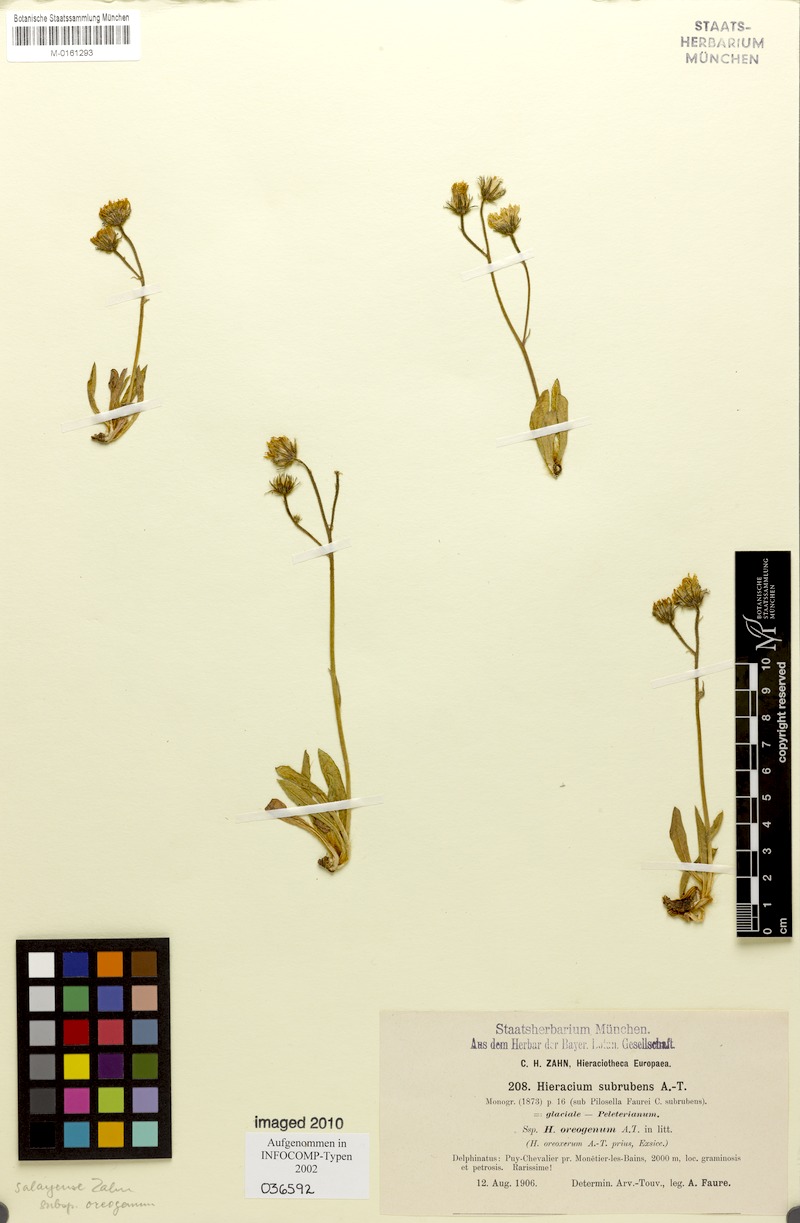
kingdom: Plantae
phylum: Tracheophyta
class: Magnoliopsida
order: Asterales
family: Asteraceae
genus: Pilosella
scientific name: Pilosella subrubens
